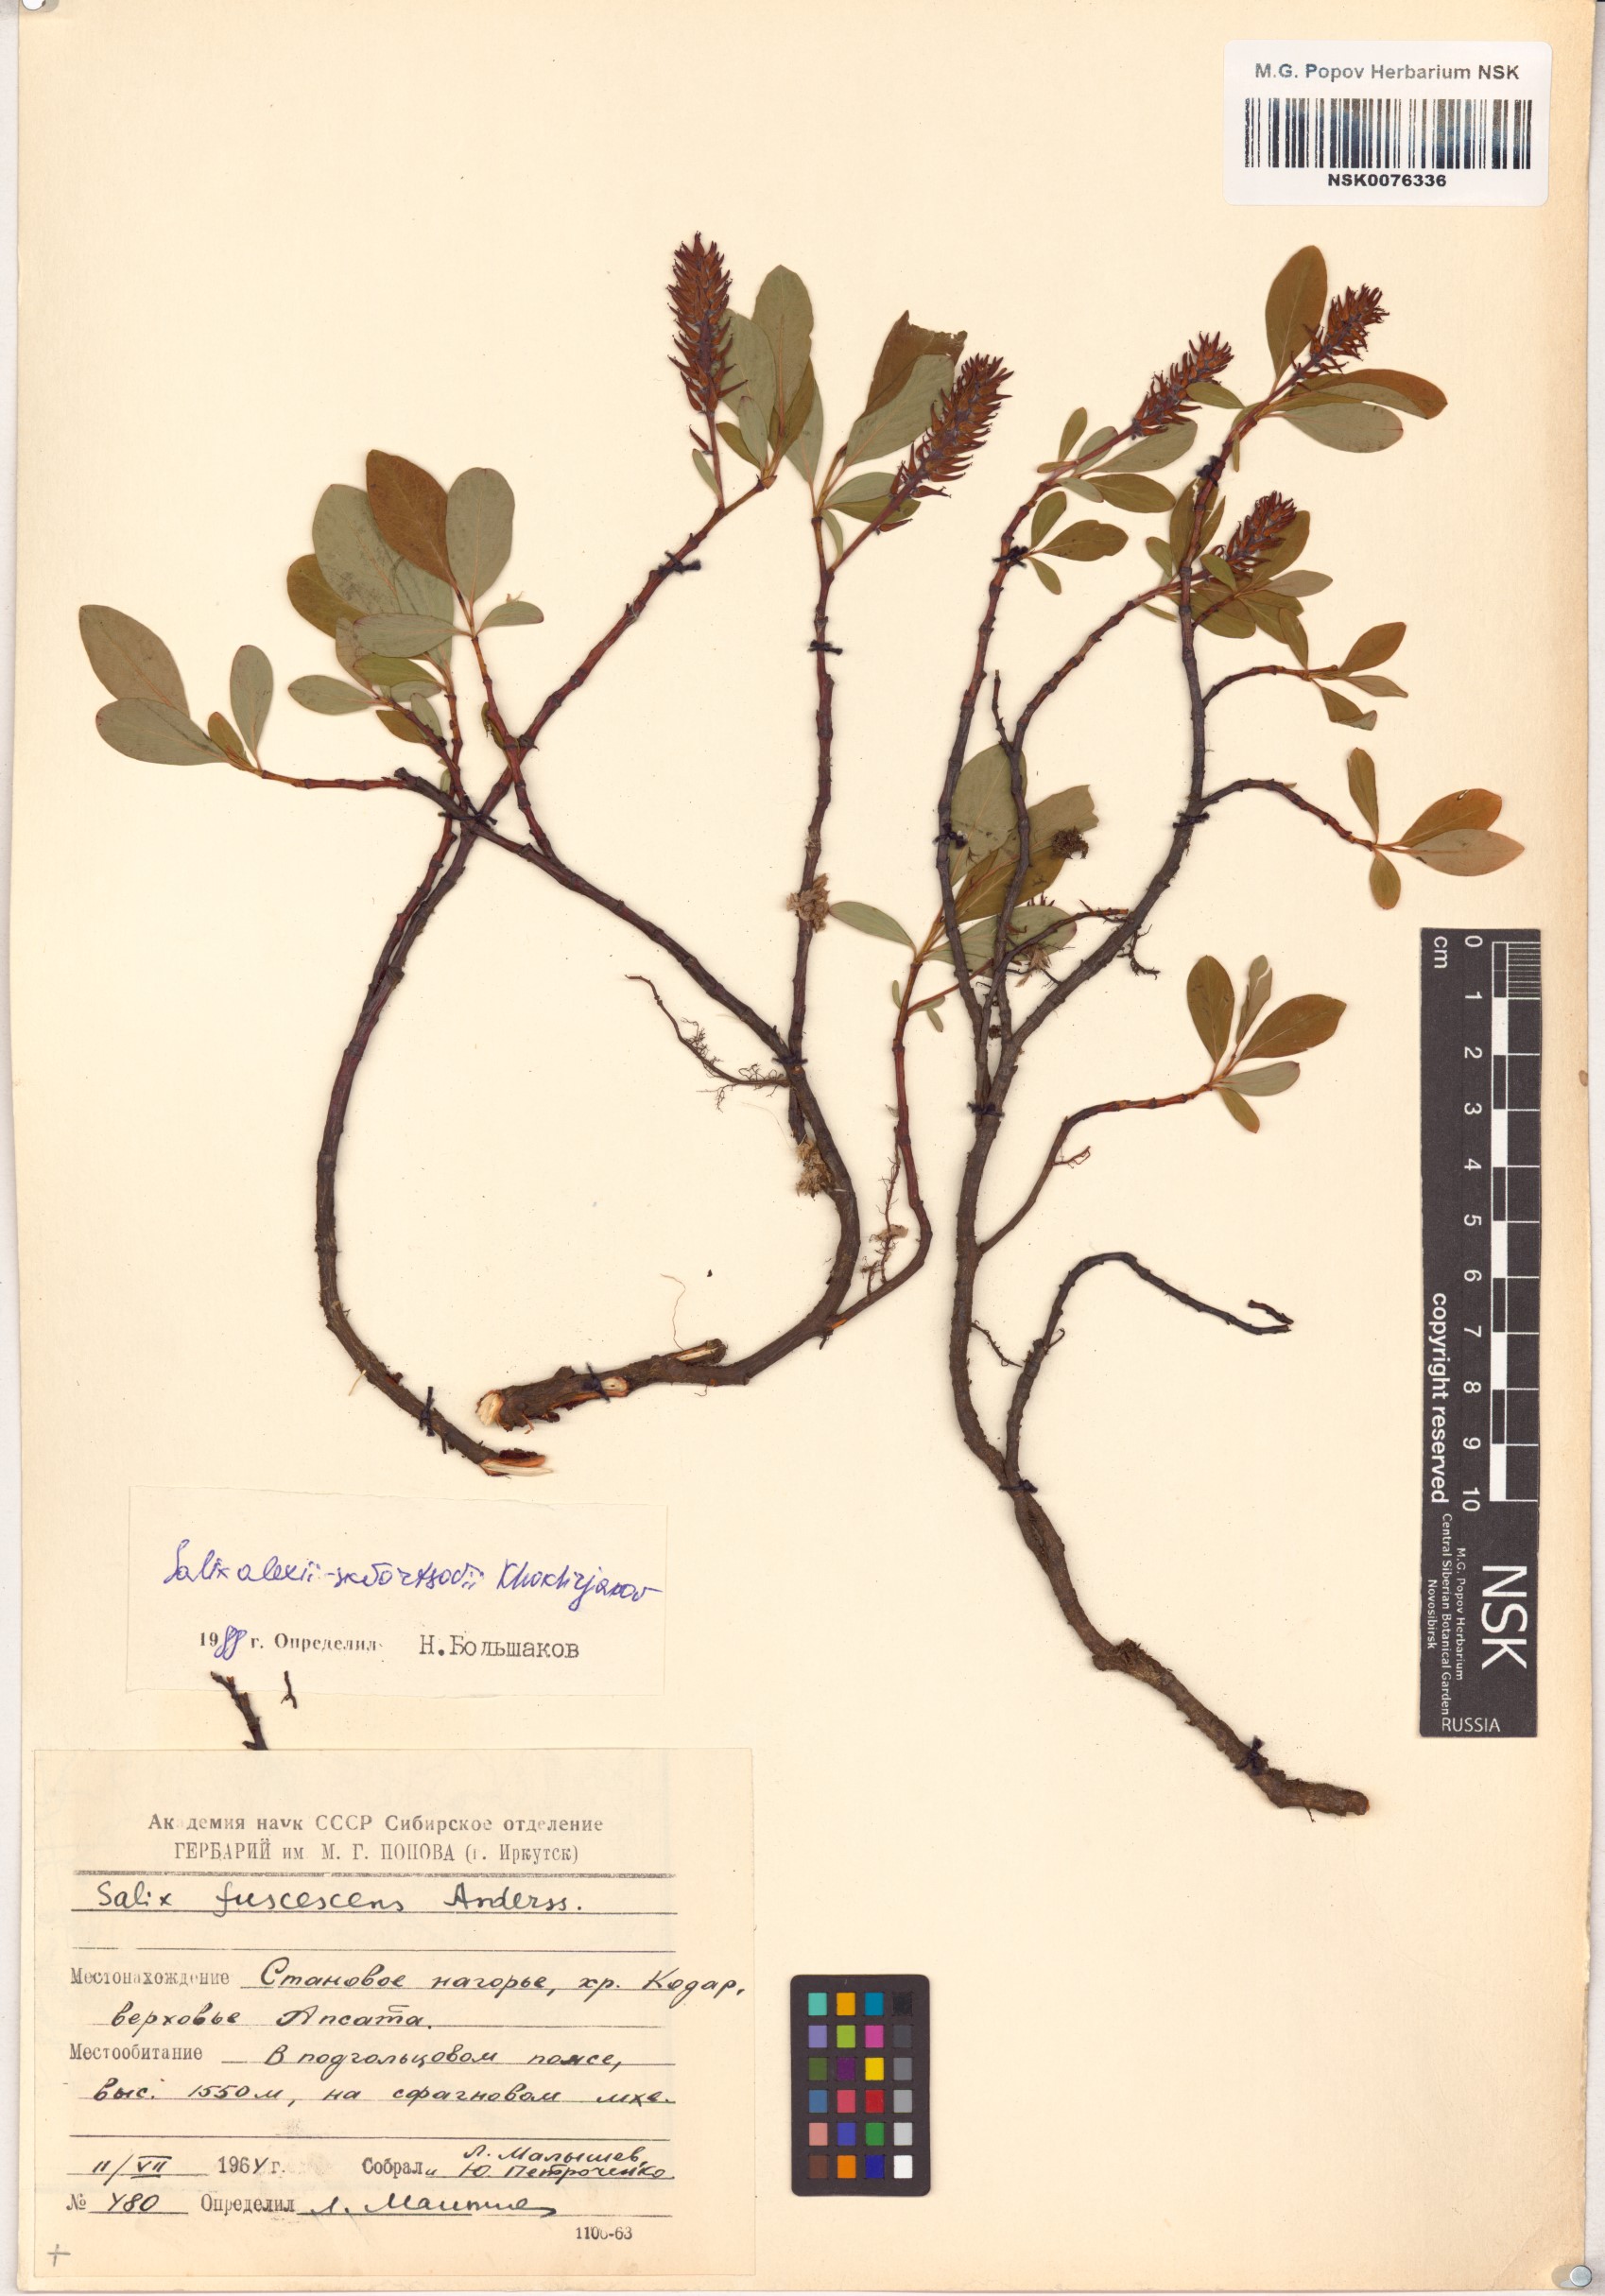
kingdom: Plantae
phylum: Tracheophyta
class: Magnoliopsida
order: Malpighiales
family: Salicaceae
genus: Salix
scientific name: Salix alexii-skvortzovii
